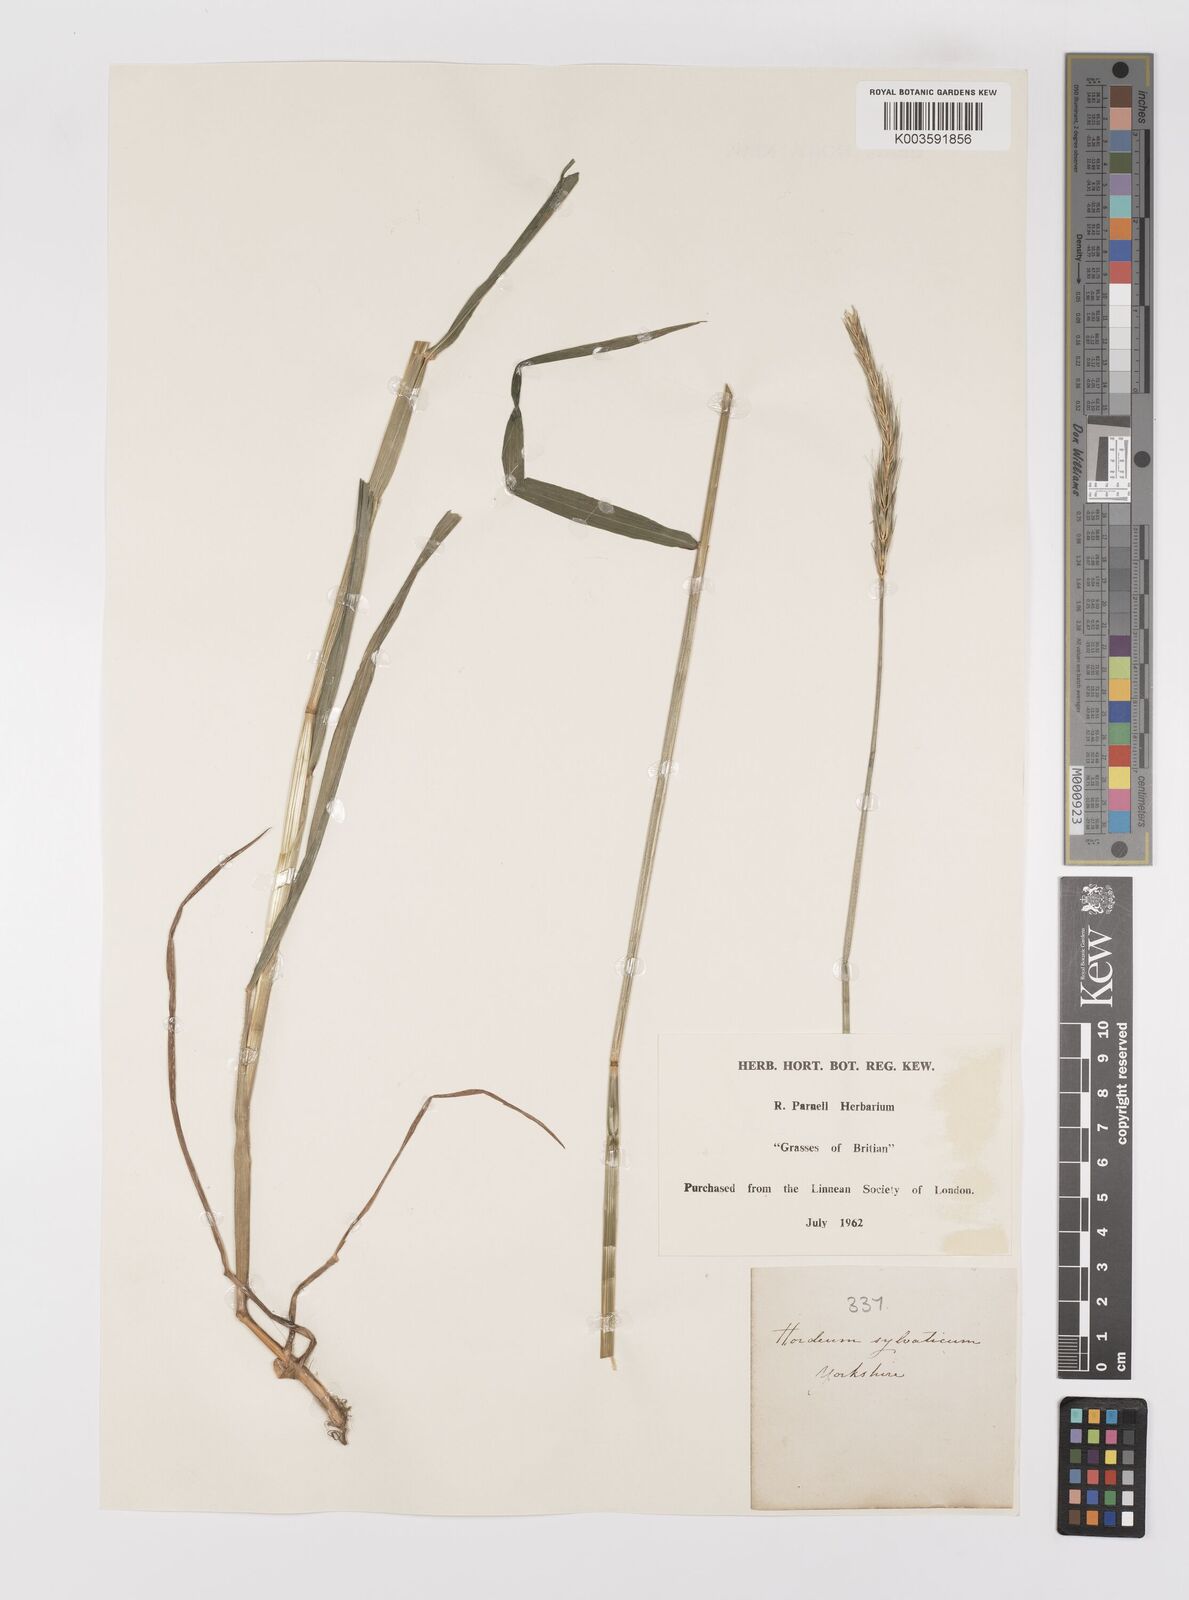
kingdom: Plantae
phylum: Tracheophyta
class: Liliopsida
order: Poales
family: Poaceae
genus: Hordelymus
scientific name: Hordelymus europaeus
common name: Wood-barley
